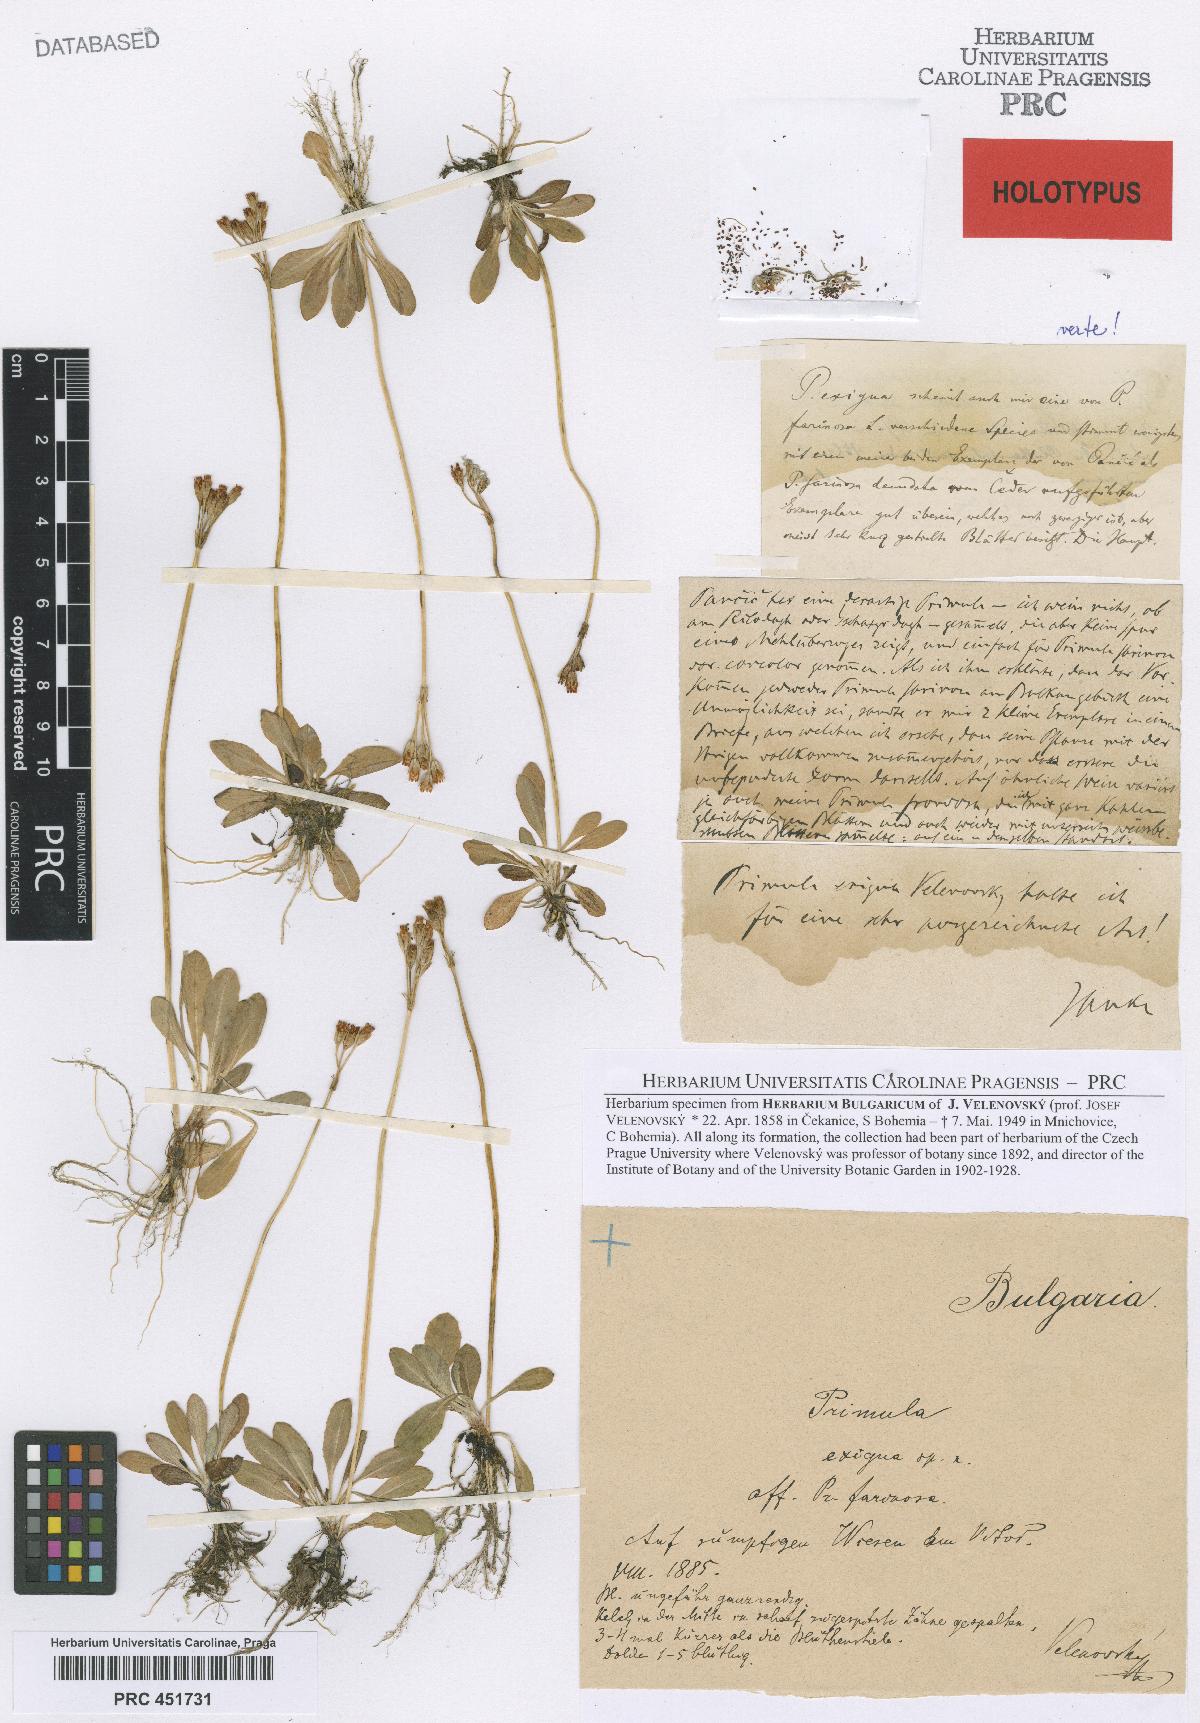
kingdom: Plantae
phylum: Tracheophyta
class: Magnoliopsida
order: Ericales
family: Primulaceae
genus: Primula
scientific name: Primula frondosa
